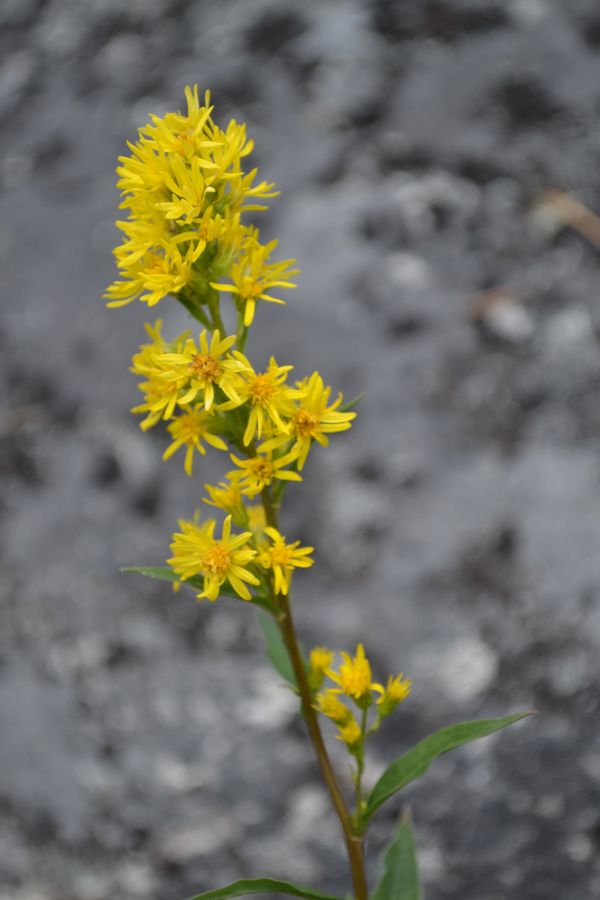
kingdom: Plantae
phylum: Tracheophyta
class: Magnoliopsida
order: Asterales
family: Asteraceae
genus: Solidago
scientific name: Solidago virgaurea
